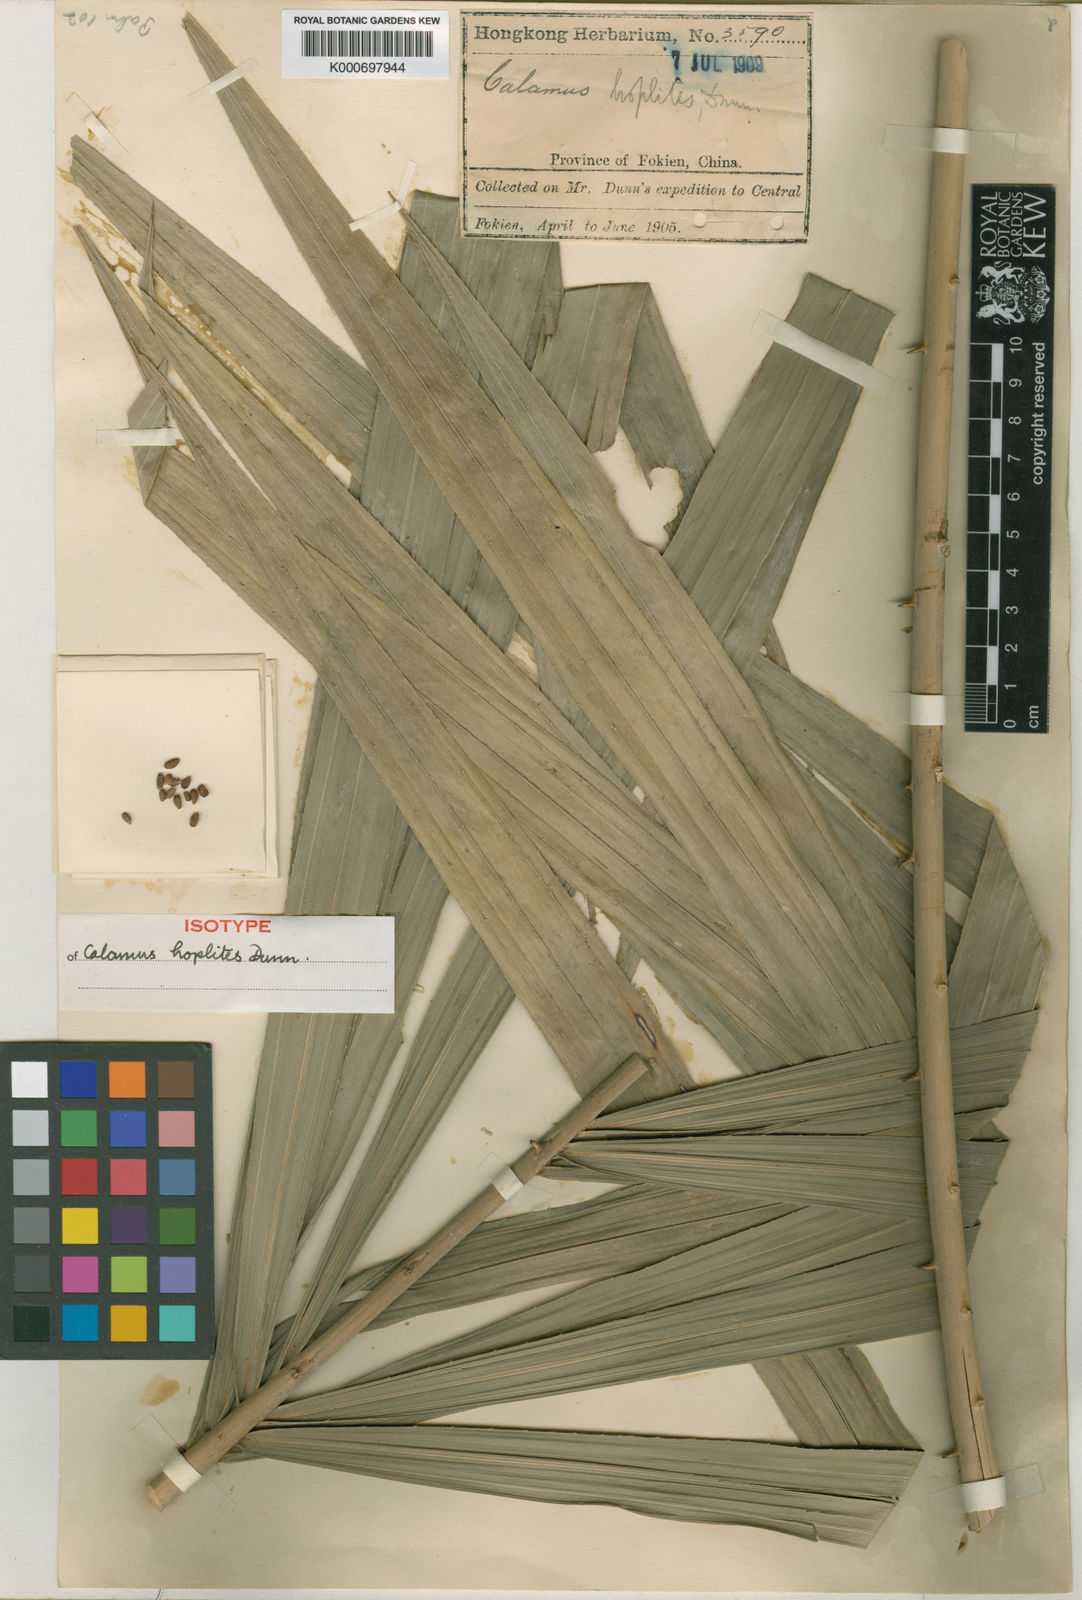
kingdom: Plantae
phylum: Tracheophyta
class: Liliopsida
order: Arecales
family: Arecaceae
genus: Calamus
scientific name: Calamus thysanolepis
